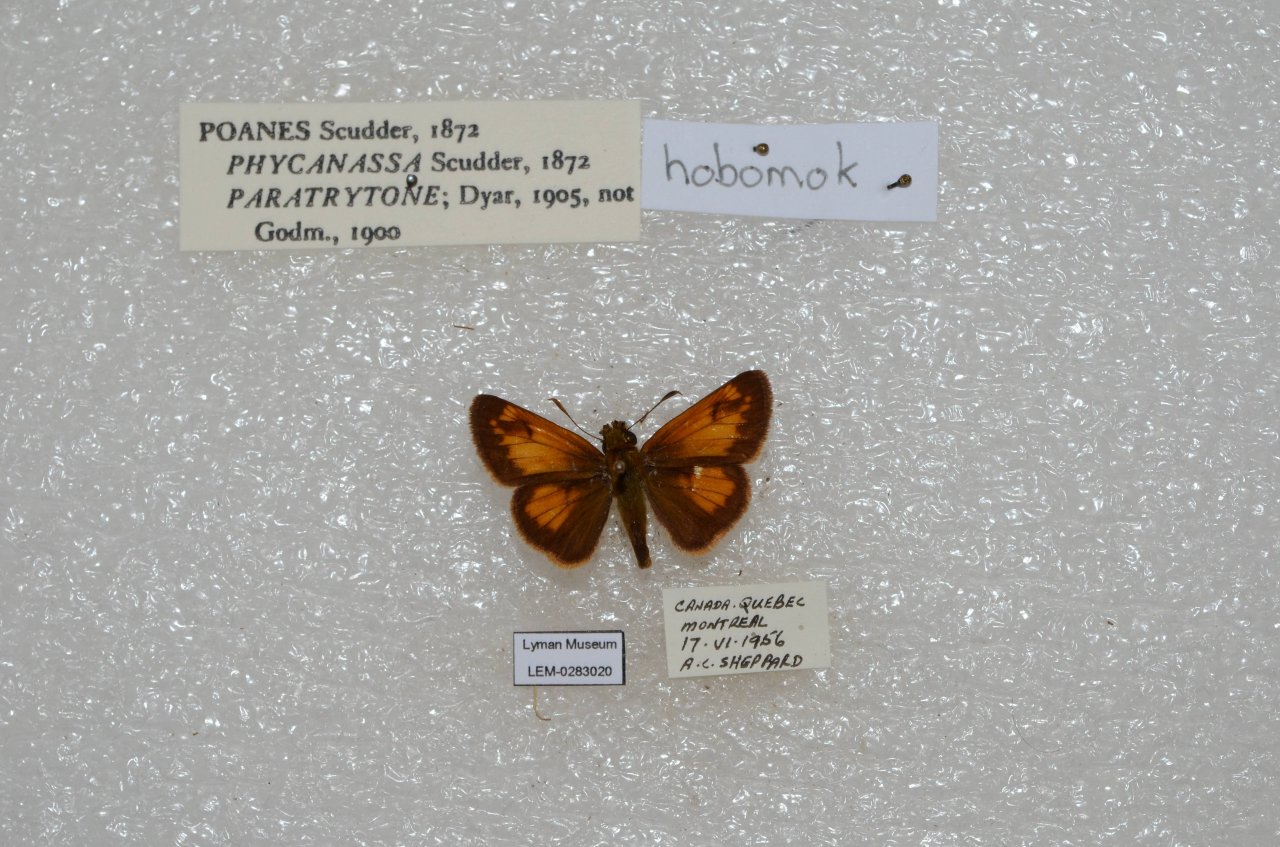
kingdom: Animalia
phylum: Arthropoda
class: Insecta
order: Lepidoptera
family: Hesperiidae
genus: Lon
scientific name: Lon hobomok
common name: Hobomok Skipper
